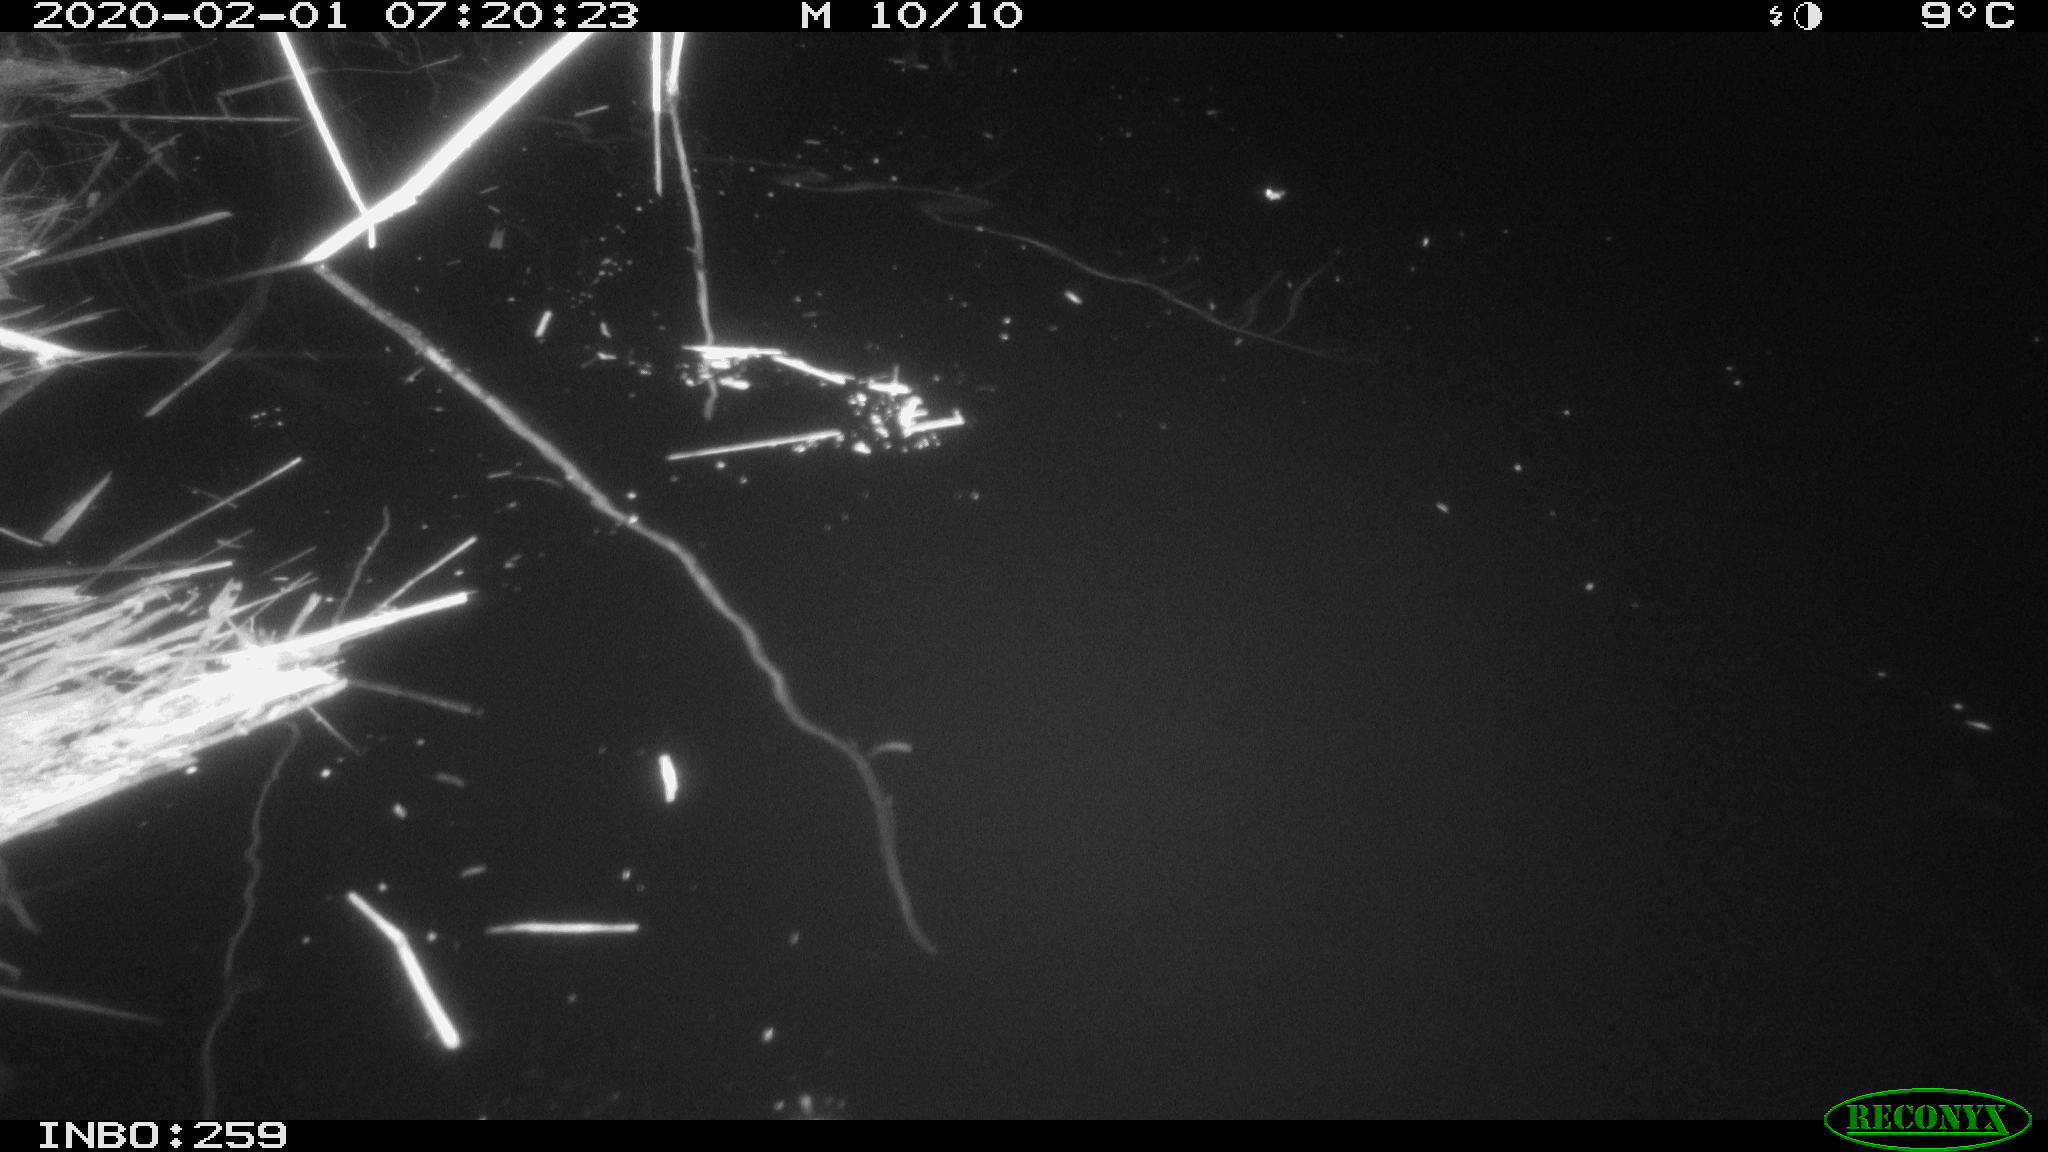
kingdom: Animalia
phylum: Chordata
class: Aves
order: Gruiformes
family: Rallidae
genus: Gallinula
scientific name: Gallinula chloropus
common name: Common moorhen
